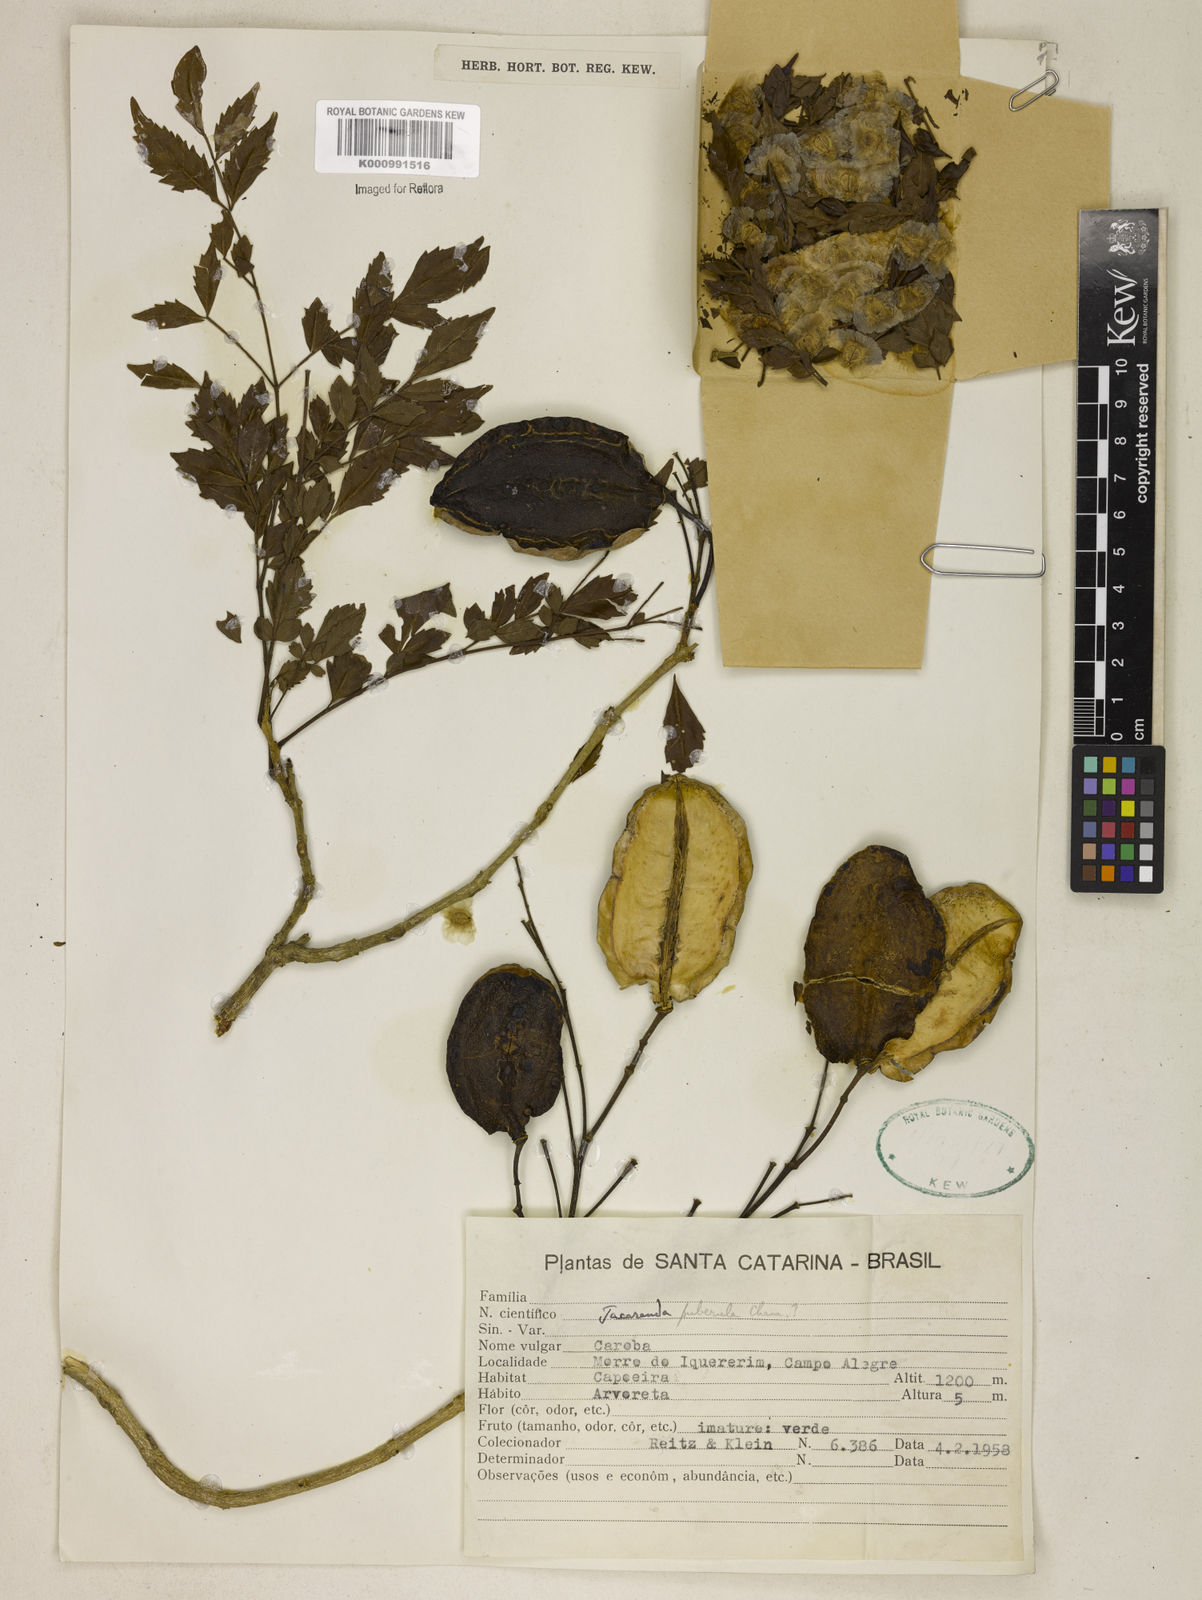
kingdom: Plantae
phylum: Tracheophyta
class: Magnoliopsida
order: Lamiales
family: Bignoniaceae
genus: Jacaranda
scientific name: Jacaranda puberula
